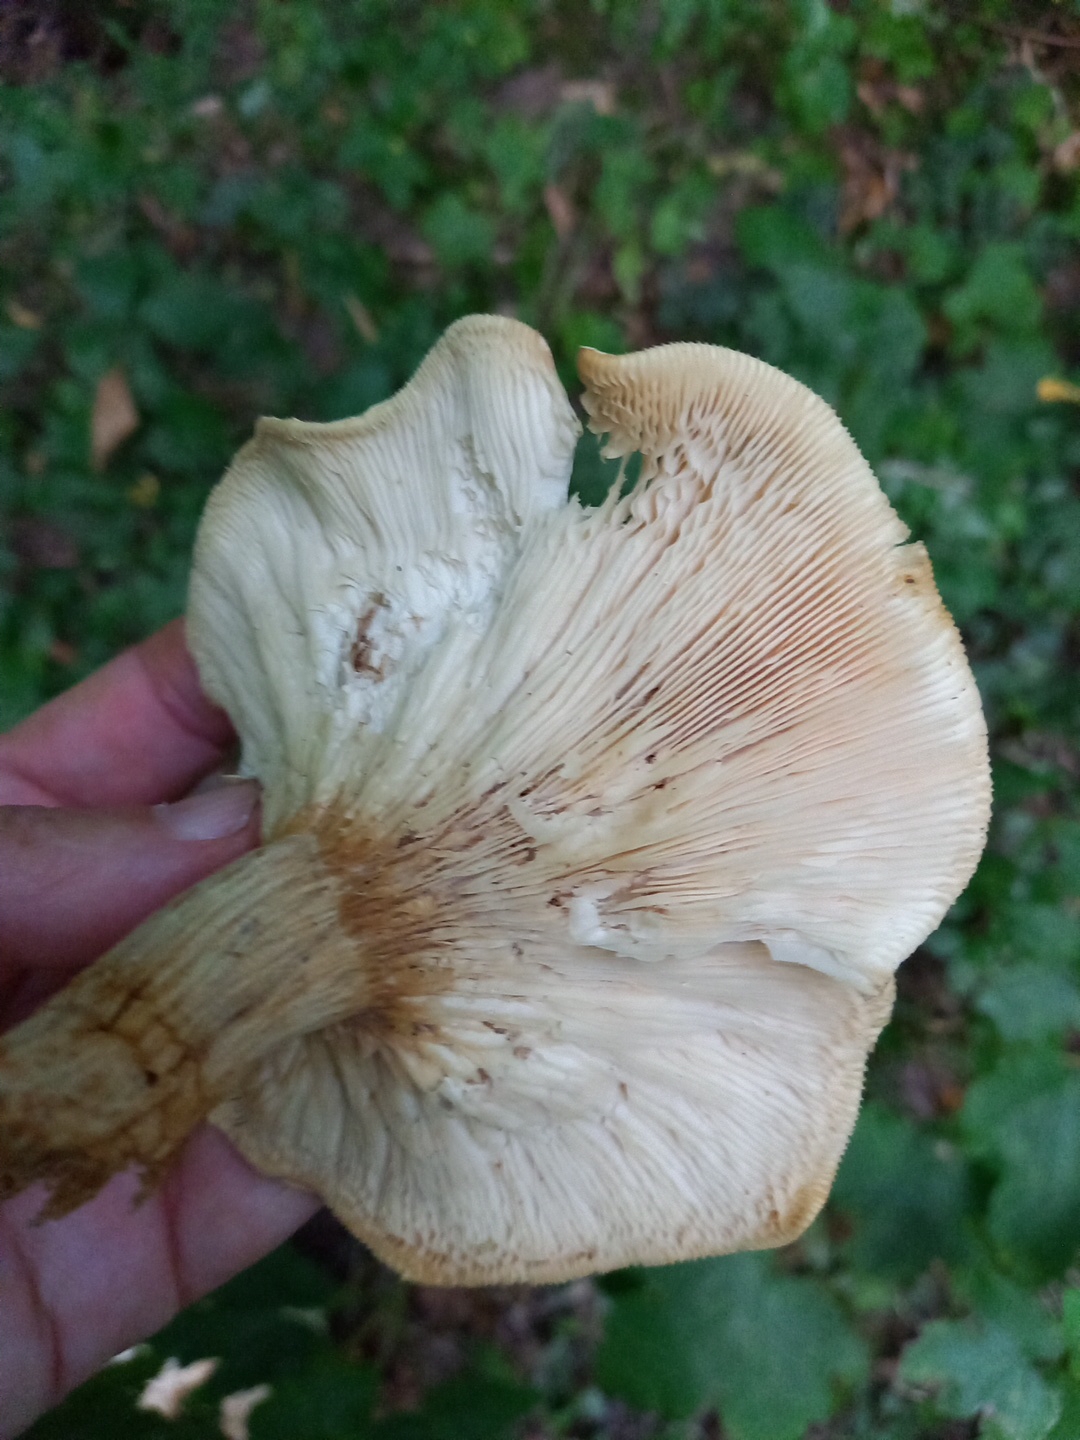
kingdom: Fungi
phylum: Basidiomycota
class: Agaricomycetes
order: Agaricales
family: Tricholomataceae
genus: Aspropaxillus
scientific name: Aspropaxillus giganteus
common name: kæmpe-tragtridderhat
